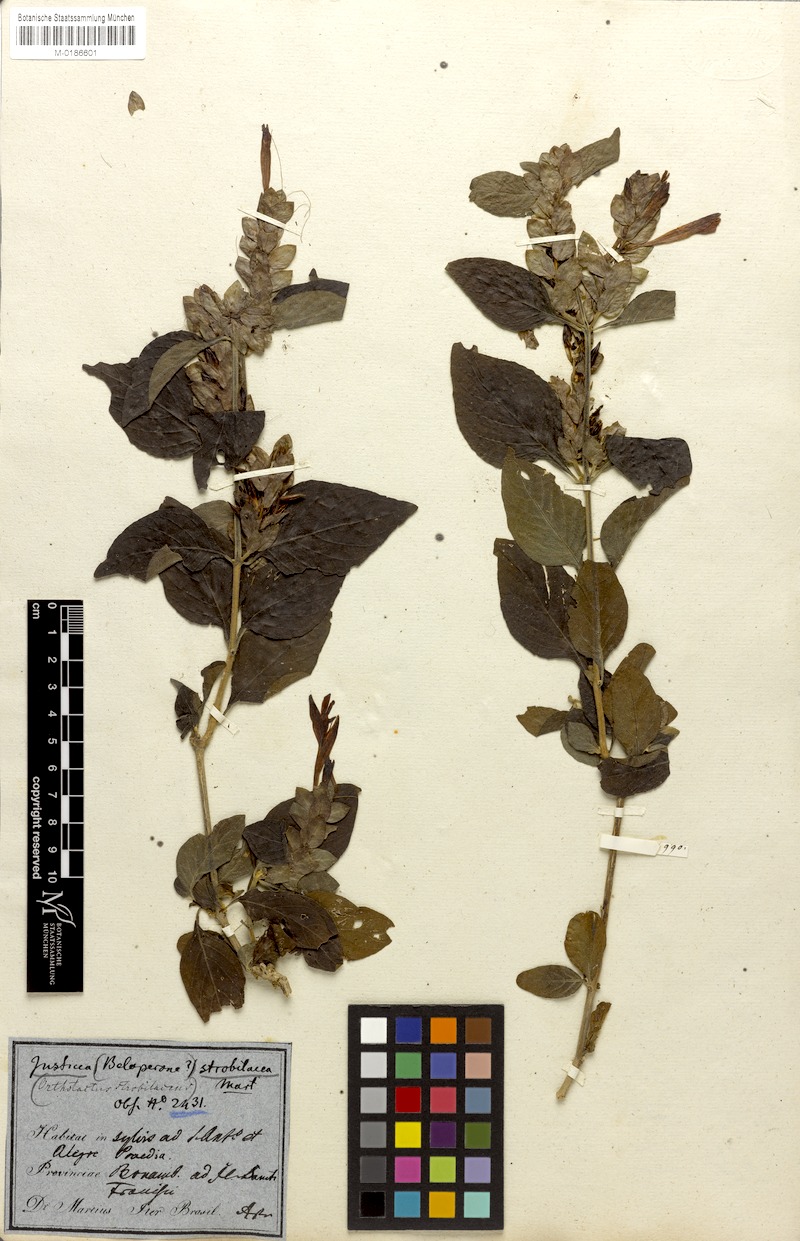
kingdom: Plantae
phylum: Tracheophyta
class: Magnoliopsida
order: Lamiales
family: Acanthaceae
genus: Justicia
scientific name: Justicia aequilabris
